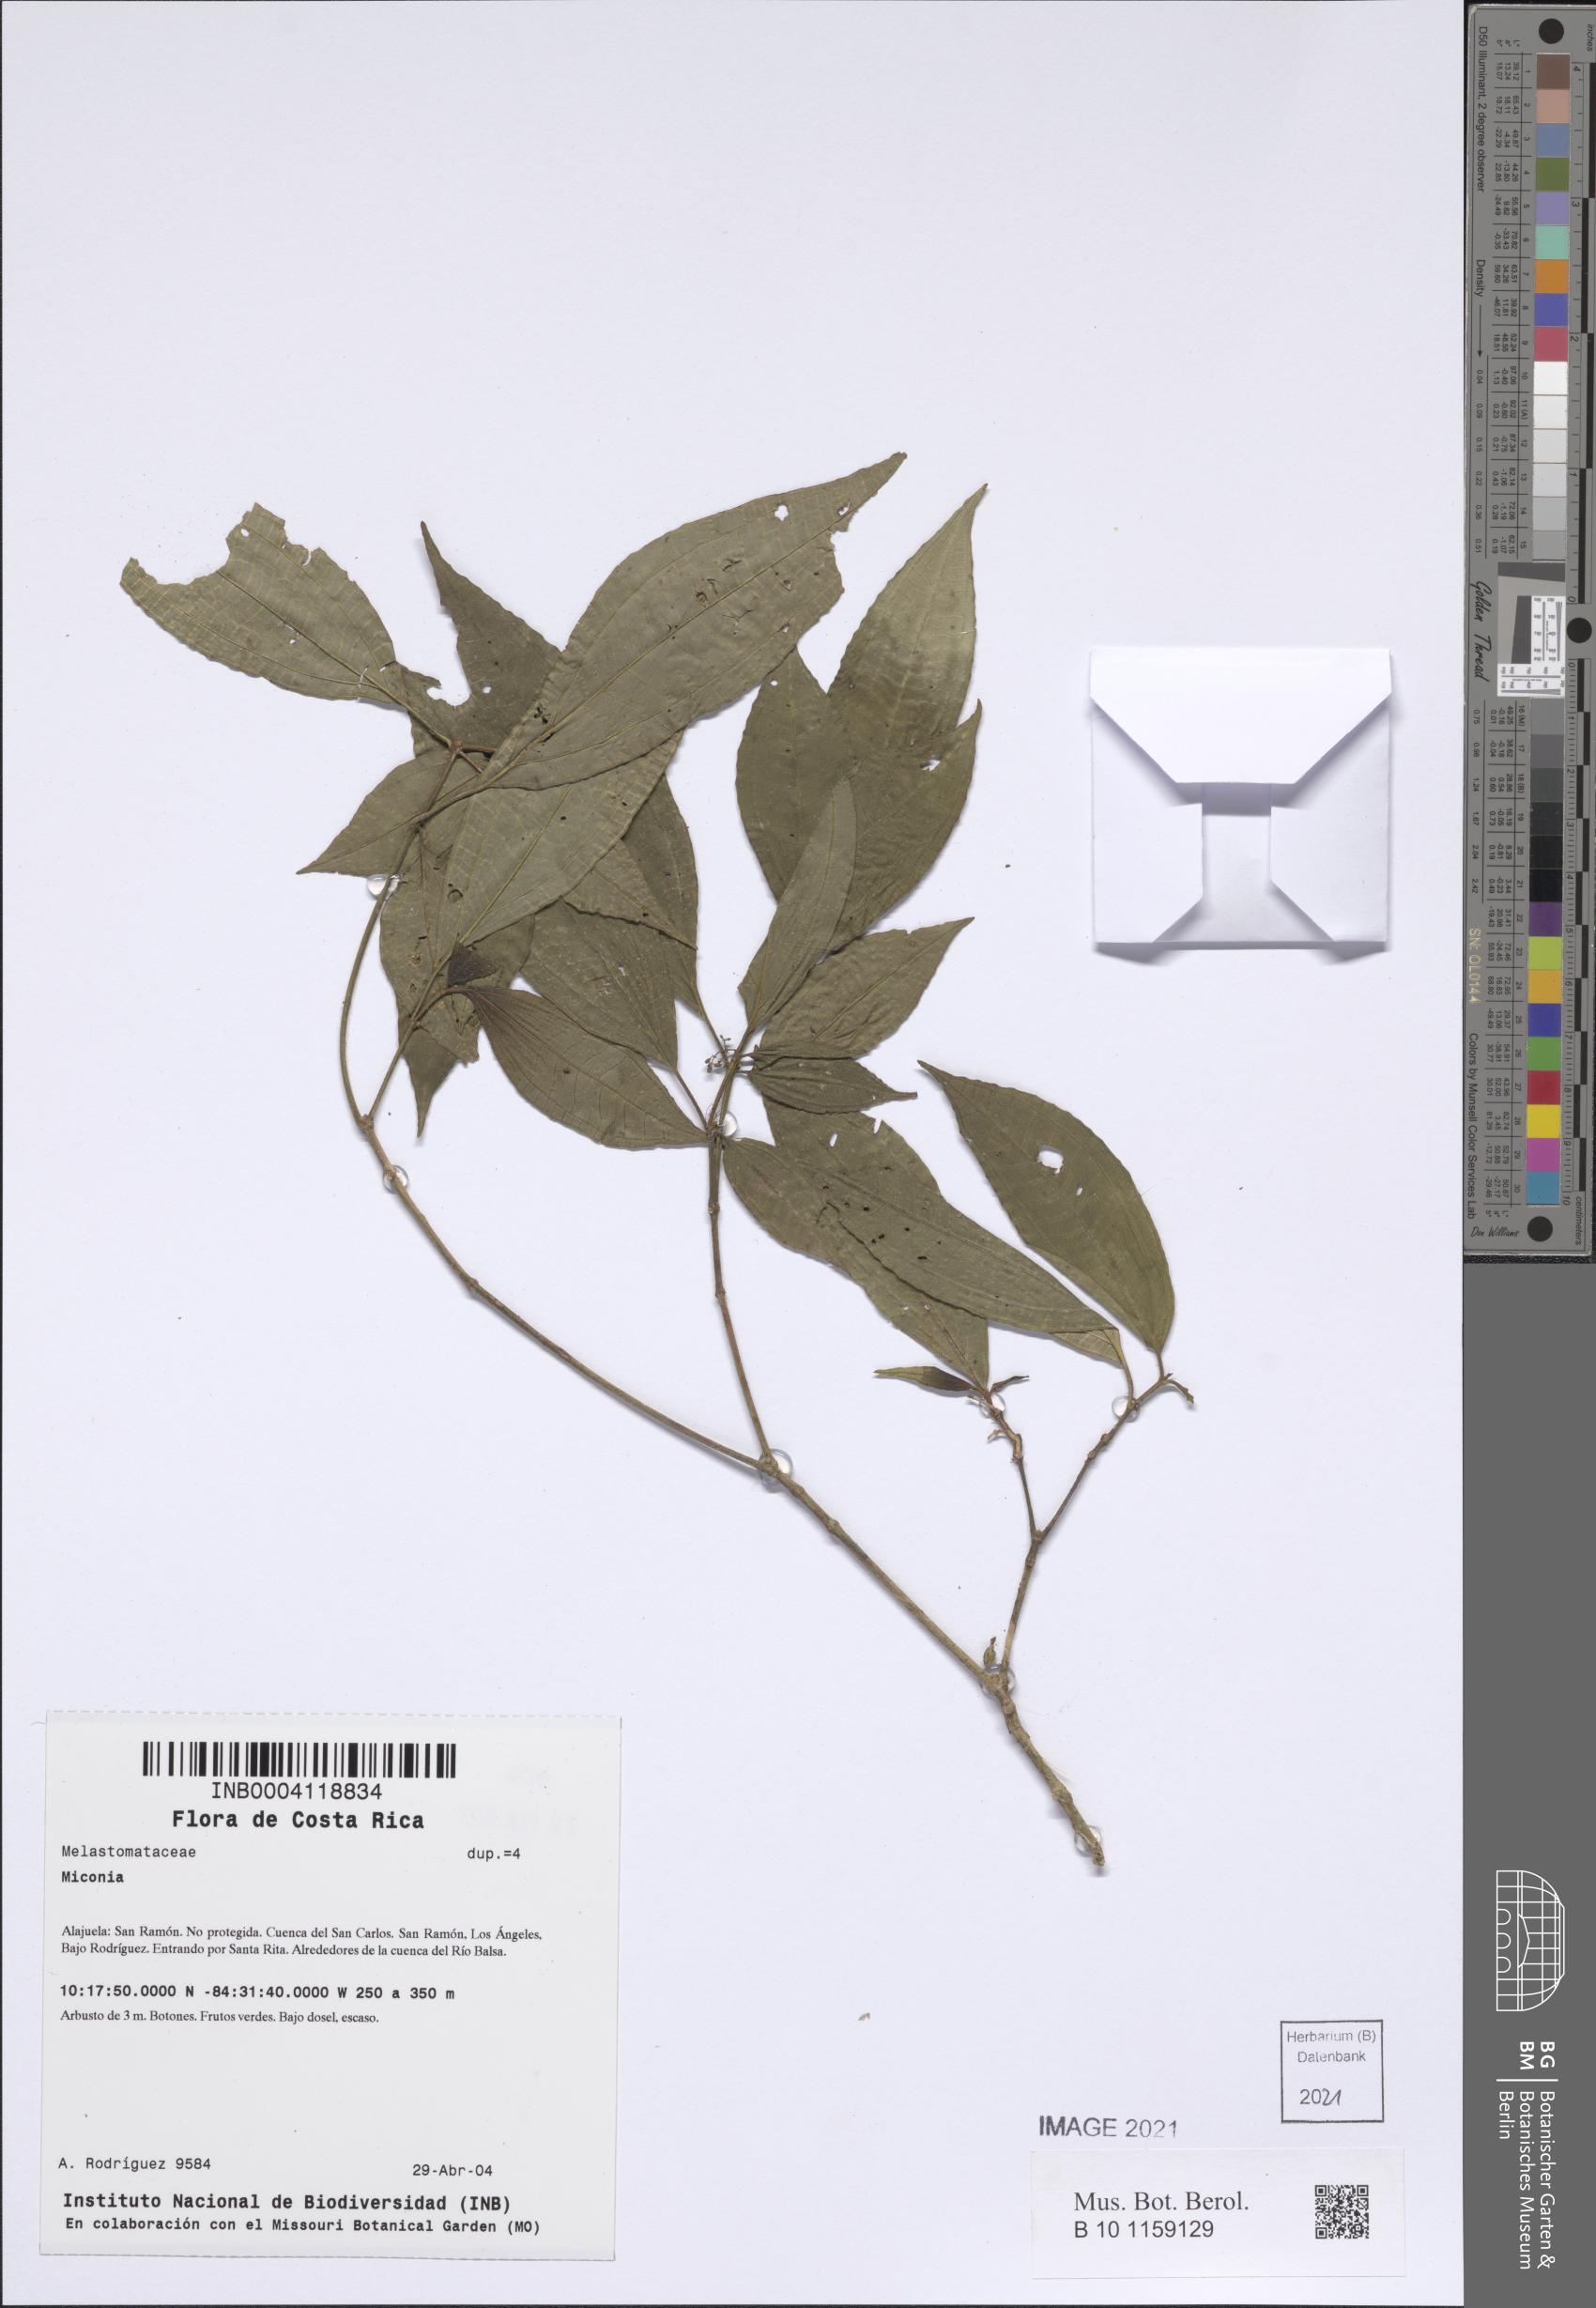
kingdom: Plantae
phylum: Tracheophyta
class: Magnoliopsida
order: Myrtales
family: Melastomataceae
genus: Miconia
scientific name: Miconia
